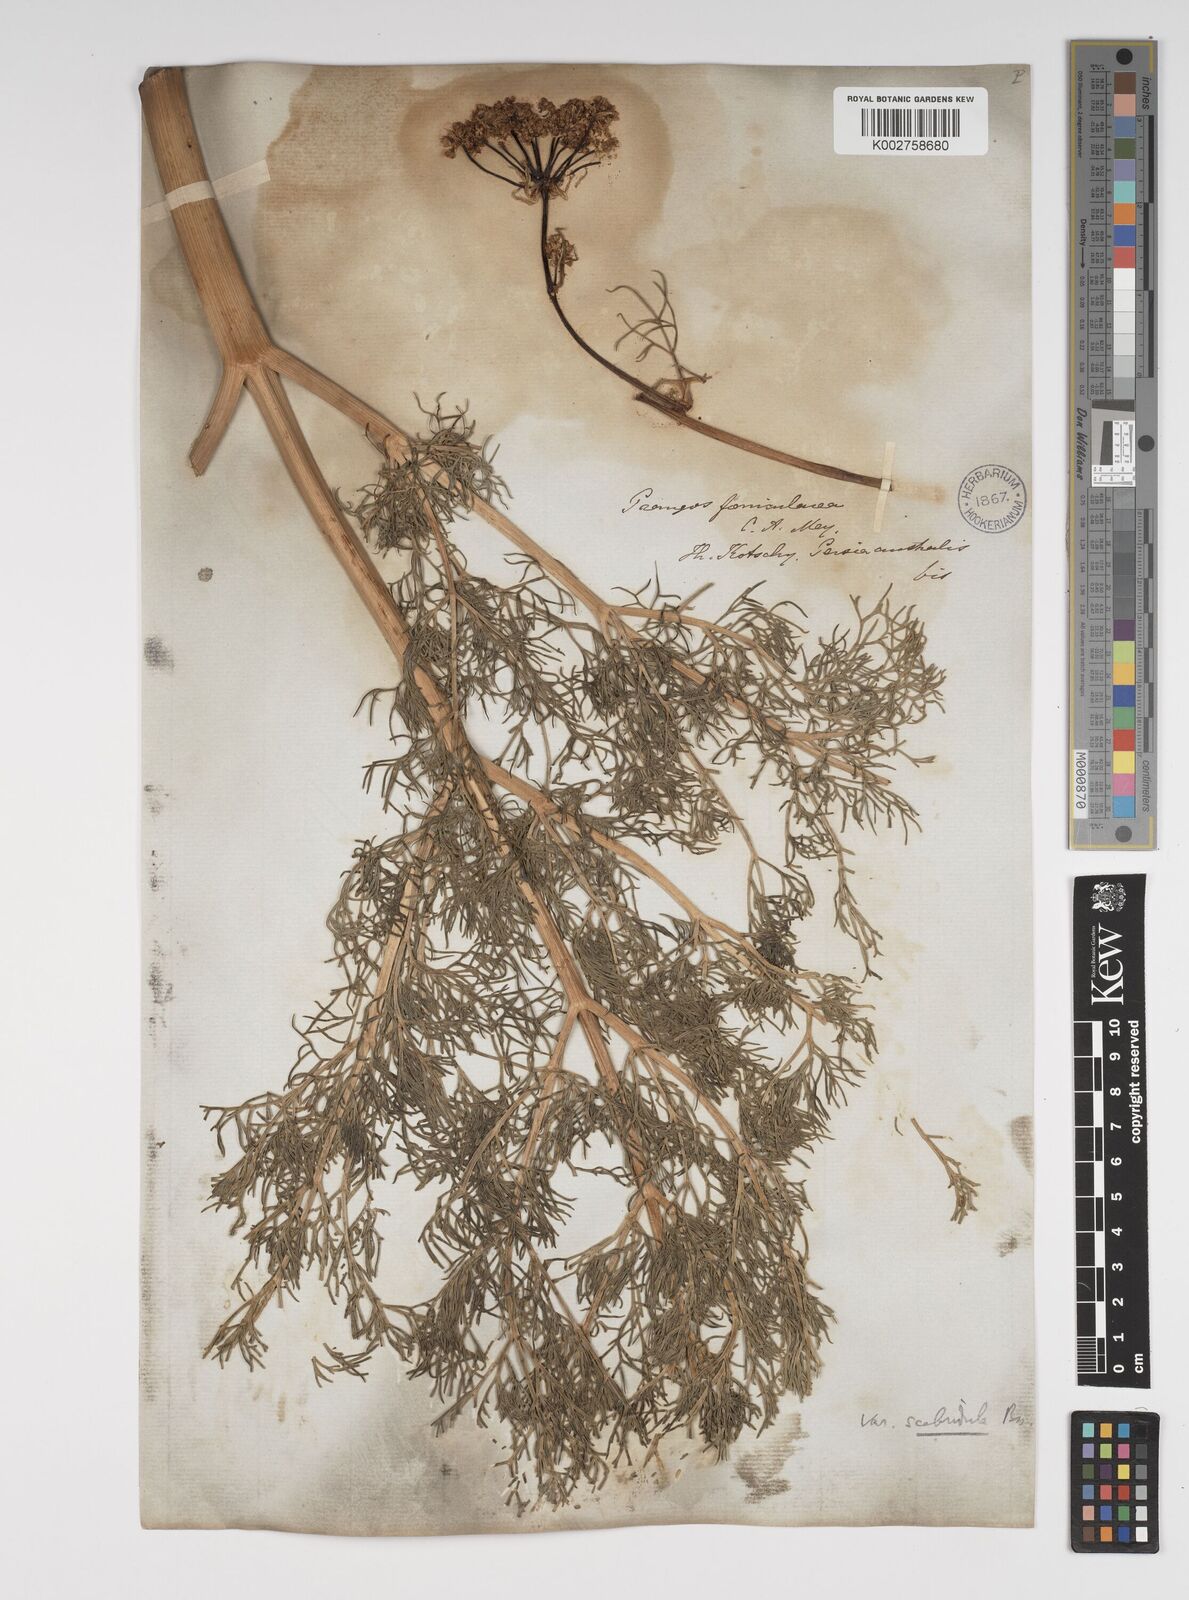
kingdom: Plantae
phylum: Tracheophyta
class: Magnoliopsida
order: Apiales
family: Apiaceae
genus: Prangos
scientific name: Prangos ferulacea
